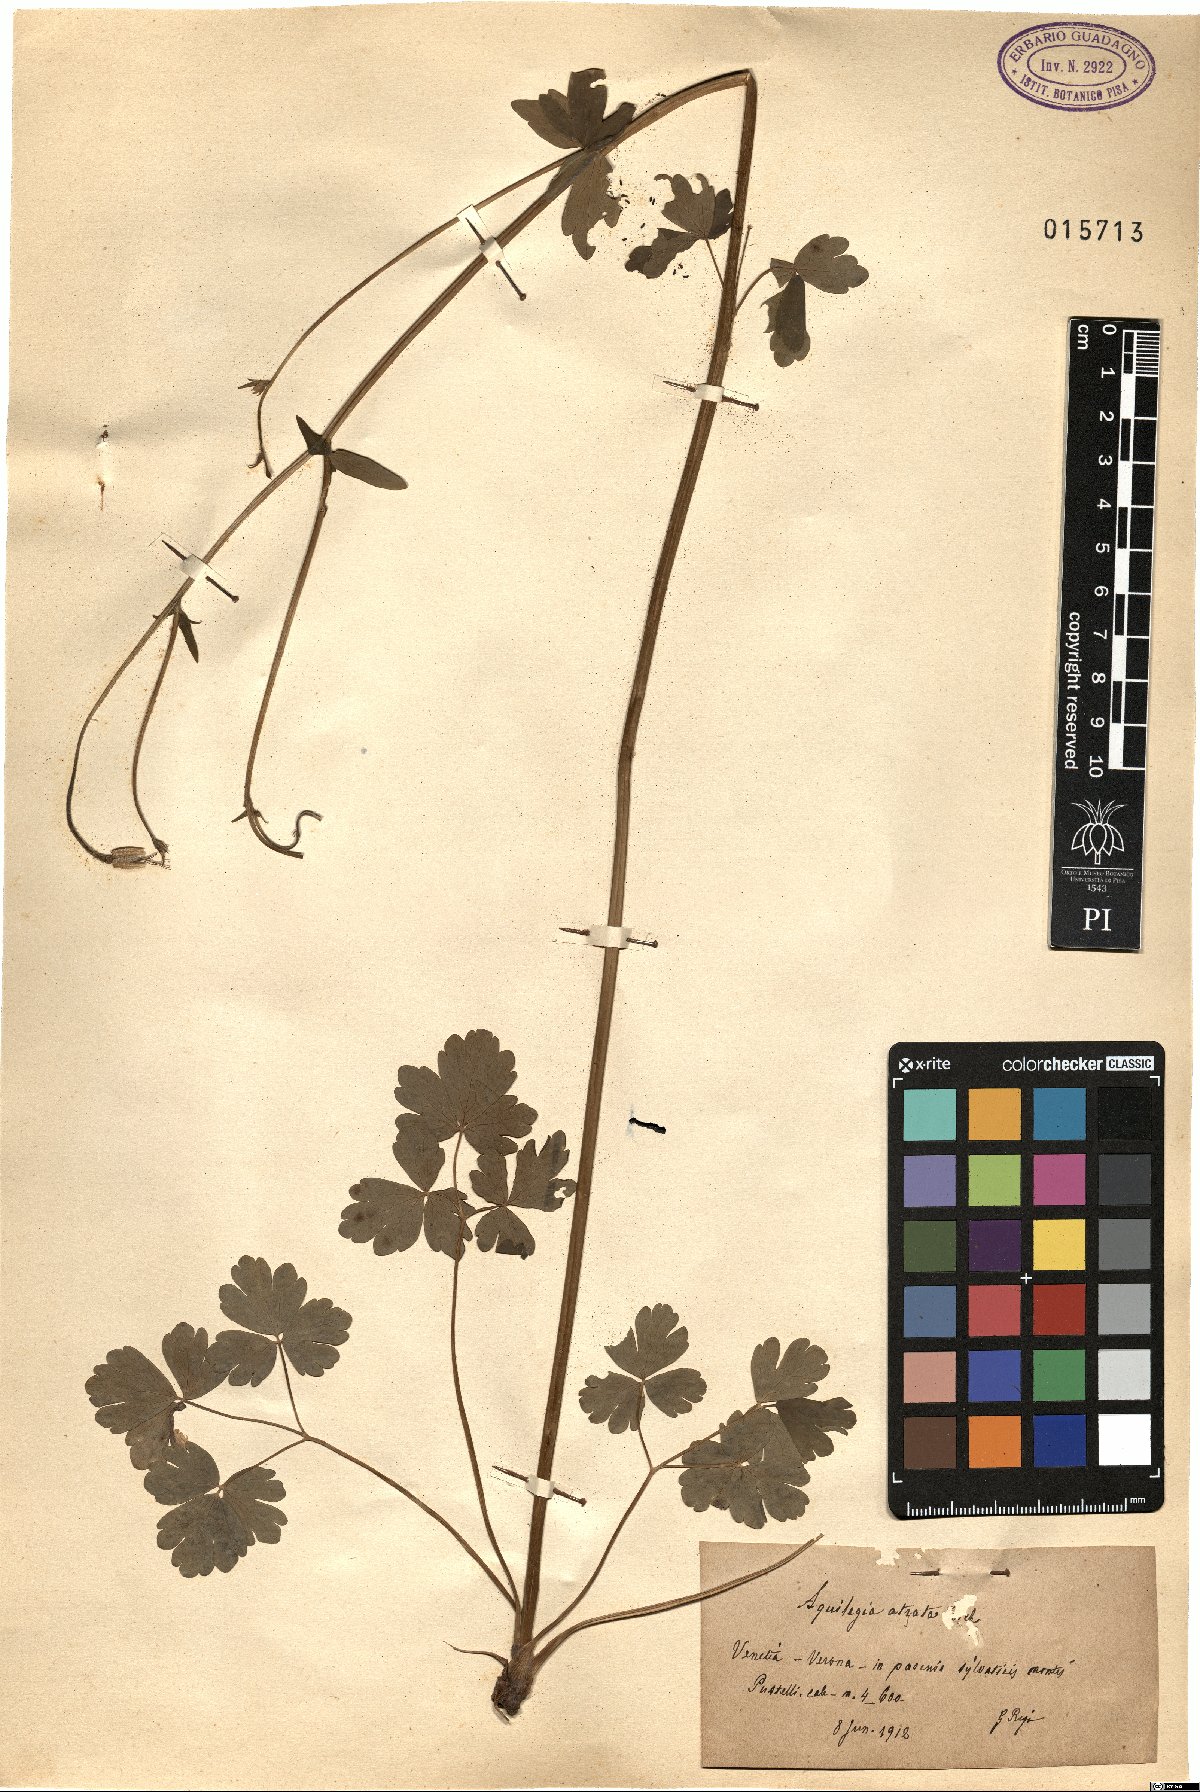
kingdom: Plantae
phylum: Tracheophyta
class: Magnoliopsida
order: Ranunculales
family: Ranunculaceae
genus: Aquilegia
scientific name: Aquilegia atrata
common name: Dark columbine
